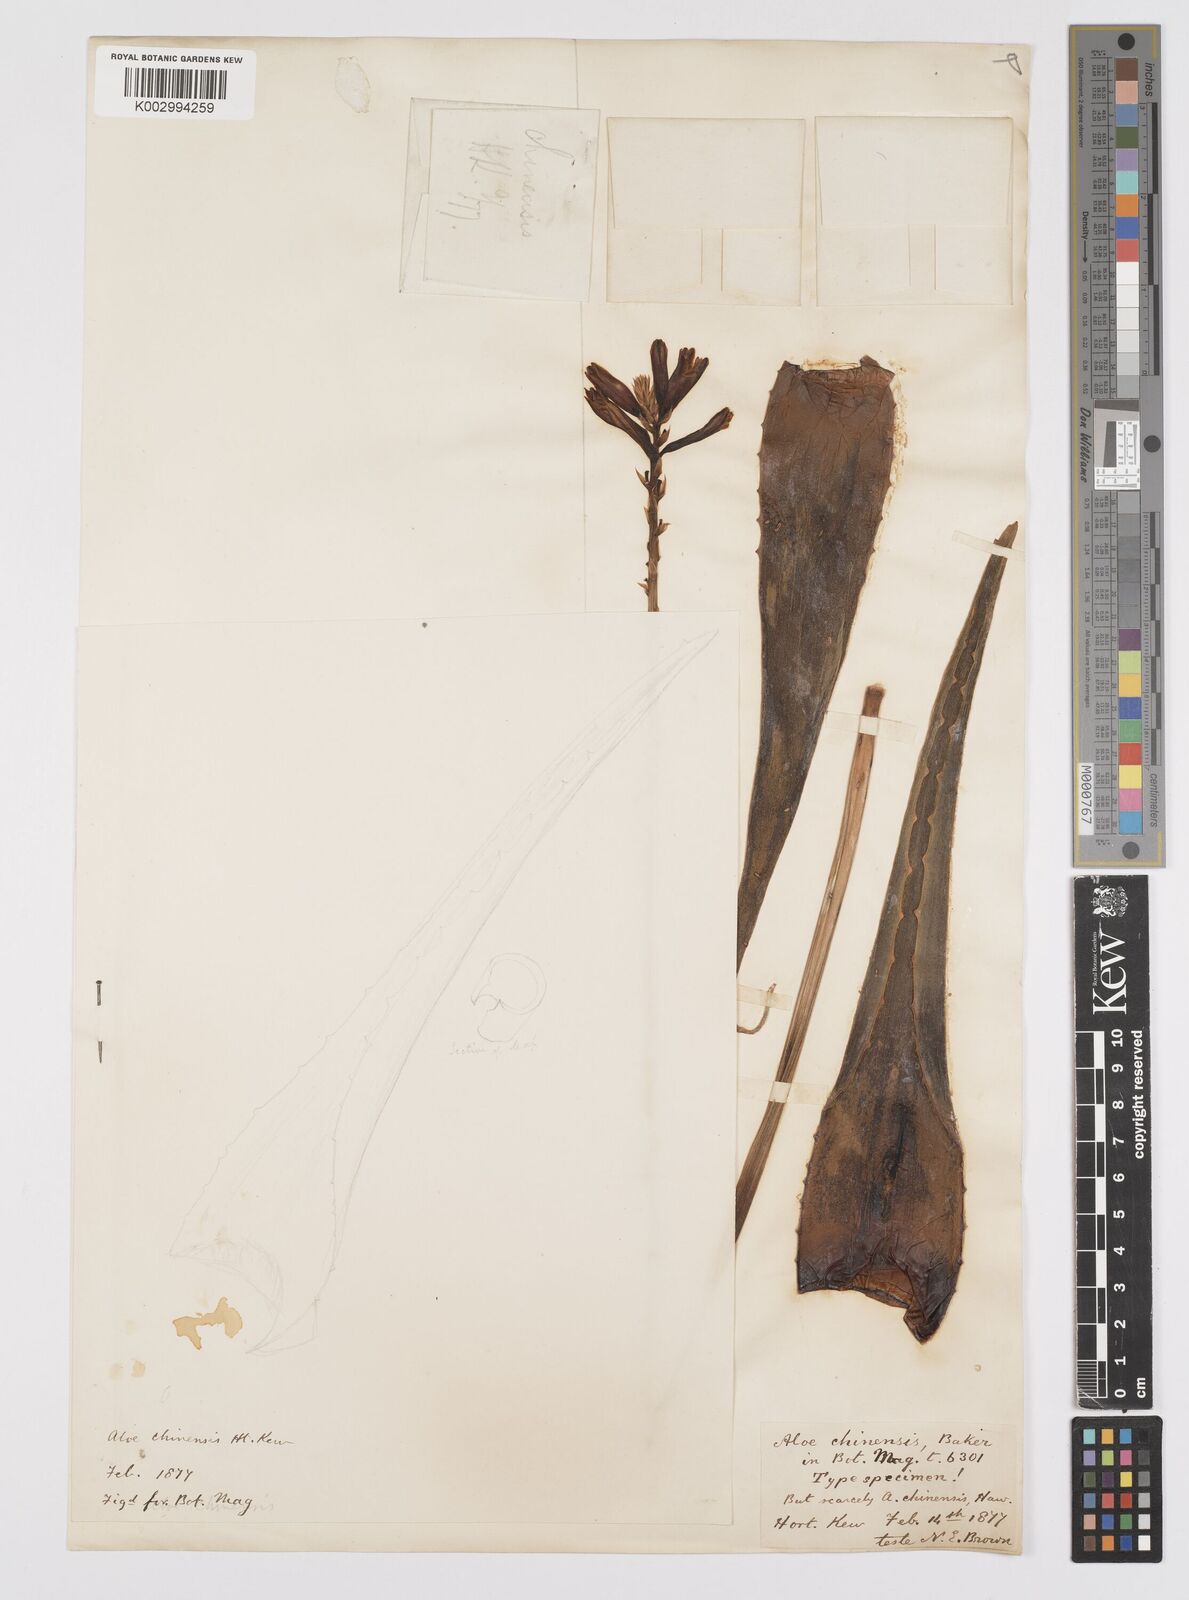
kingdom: Plantae
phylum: Tracheophyta
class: Liliopsida
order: Asparagales
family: Asphodelaceae
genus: Aloe
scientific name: Aloe vera
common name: Barbados aloe
